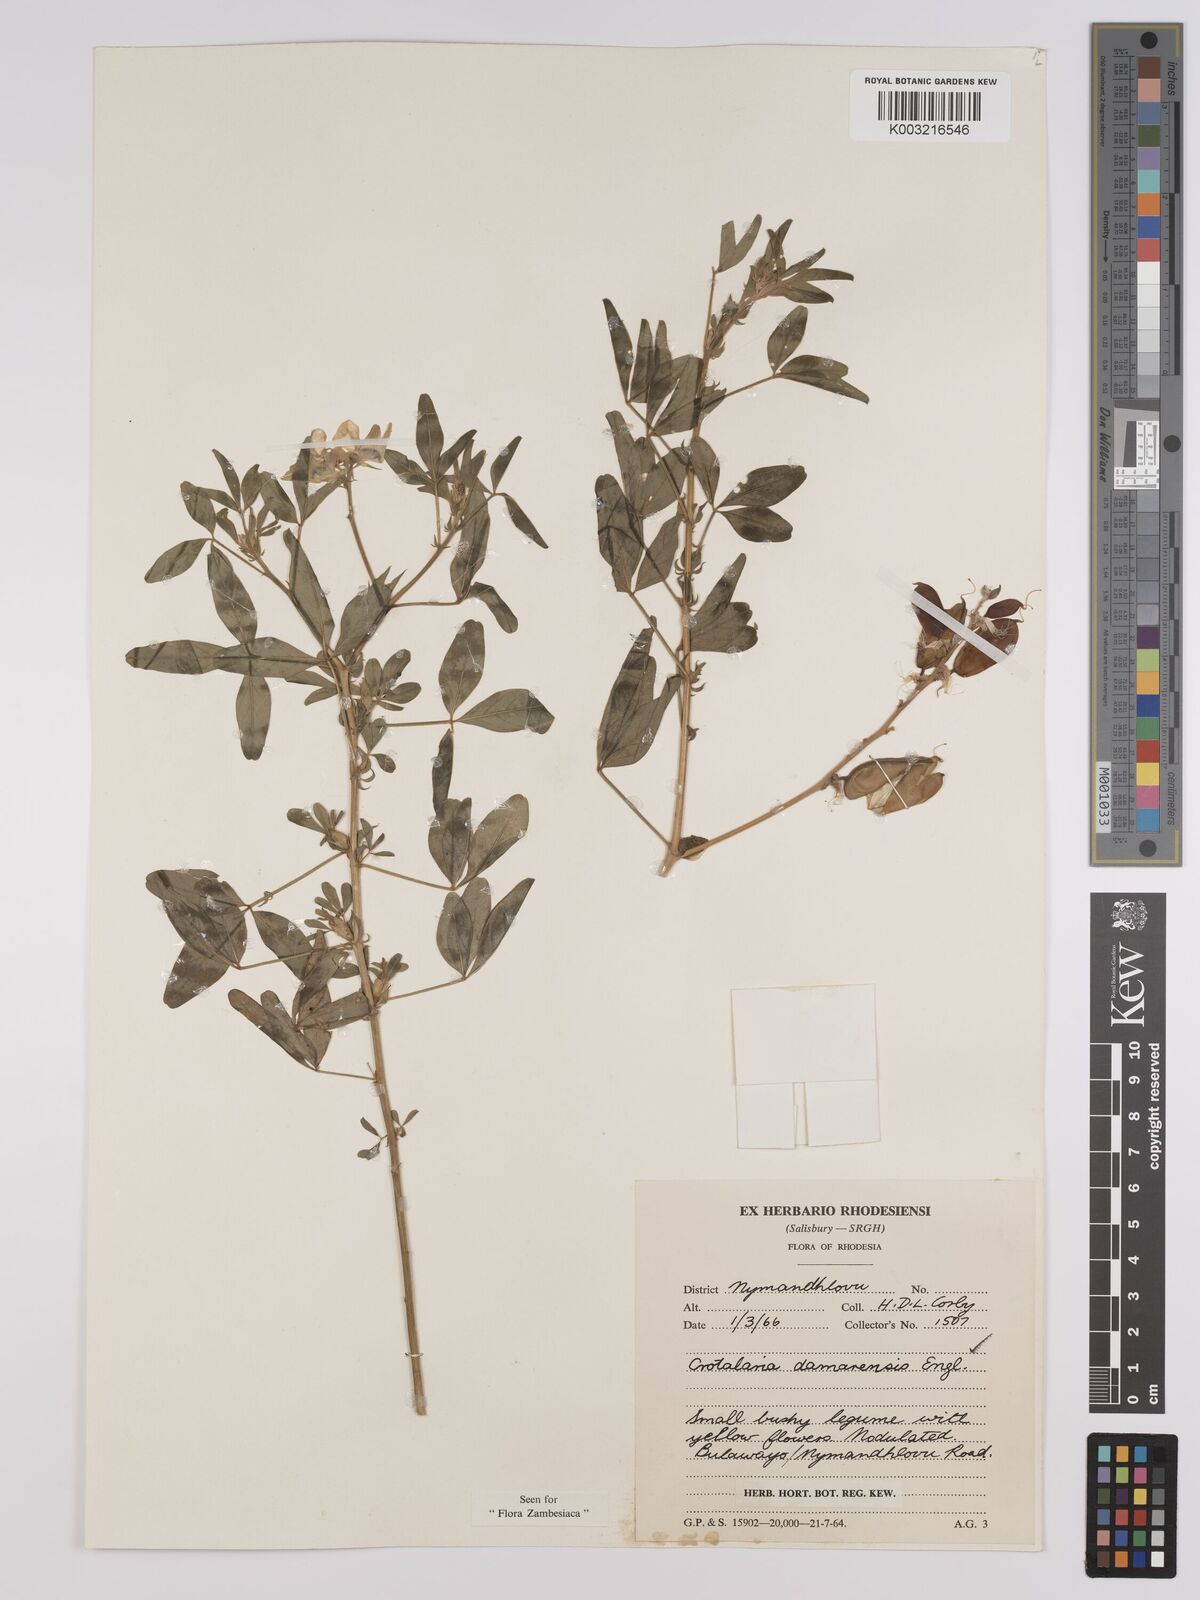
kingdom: Plantae
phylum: Tracheophyta
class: Magnoliopsida
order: Fabales
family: Fabaceae
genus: Crotalaria
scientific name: Crotalaria damarensis
